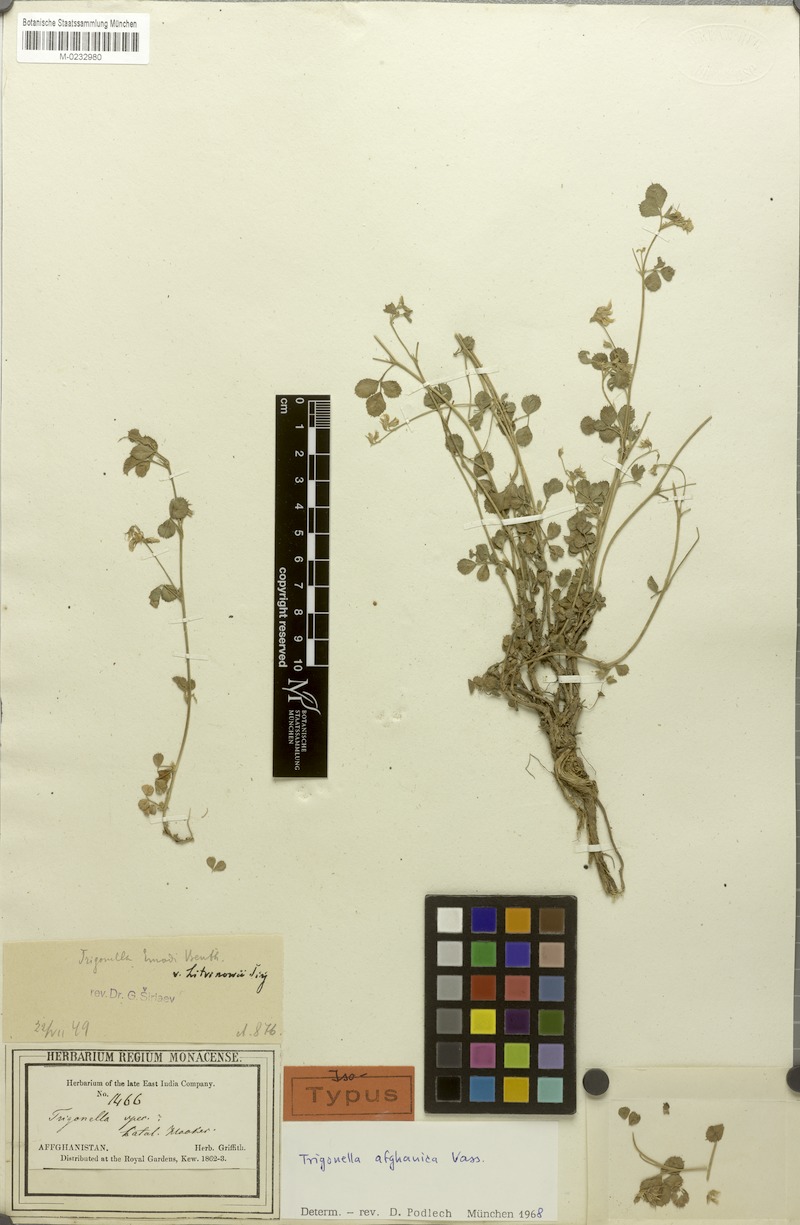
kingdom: Plantae
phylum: Tracheophyta
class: Magnoliopsida
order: Fabales
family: Fabaceae
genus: Trigonella
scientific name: Trigonella afghanica
